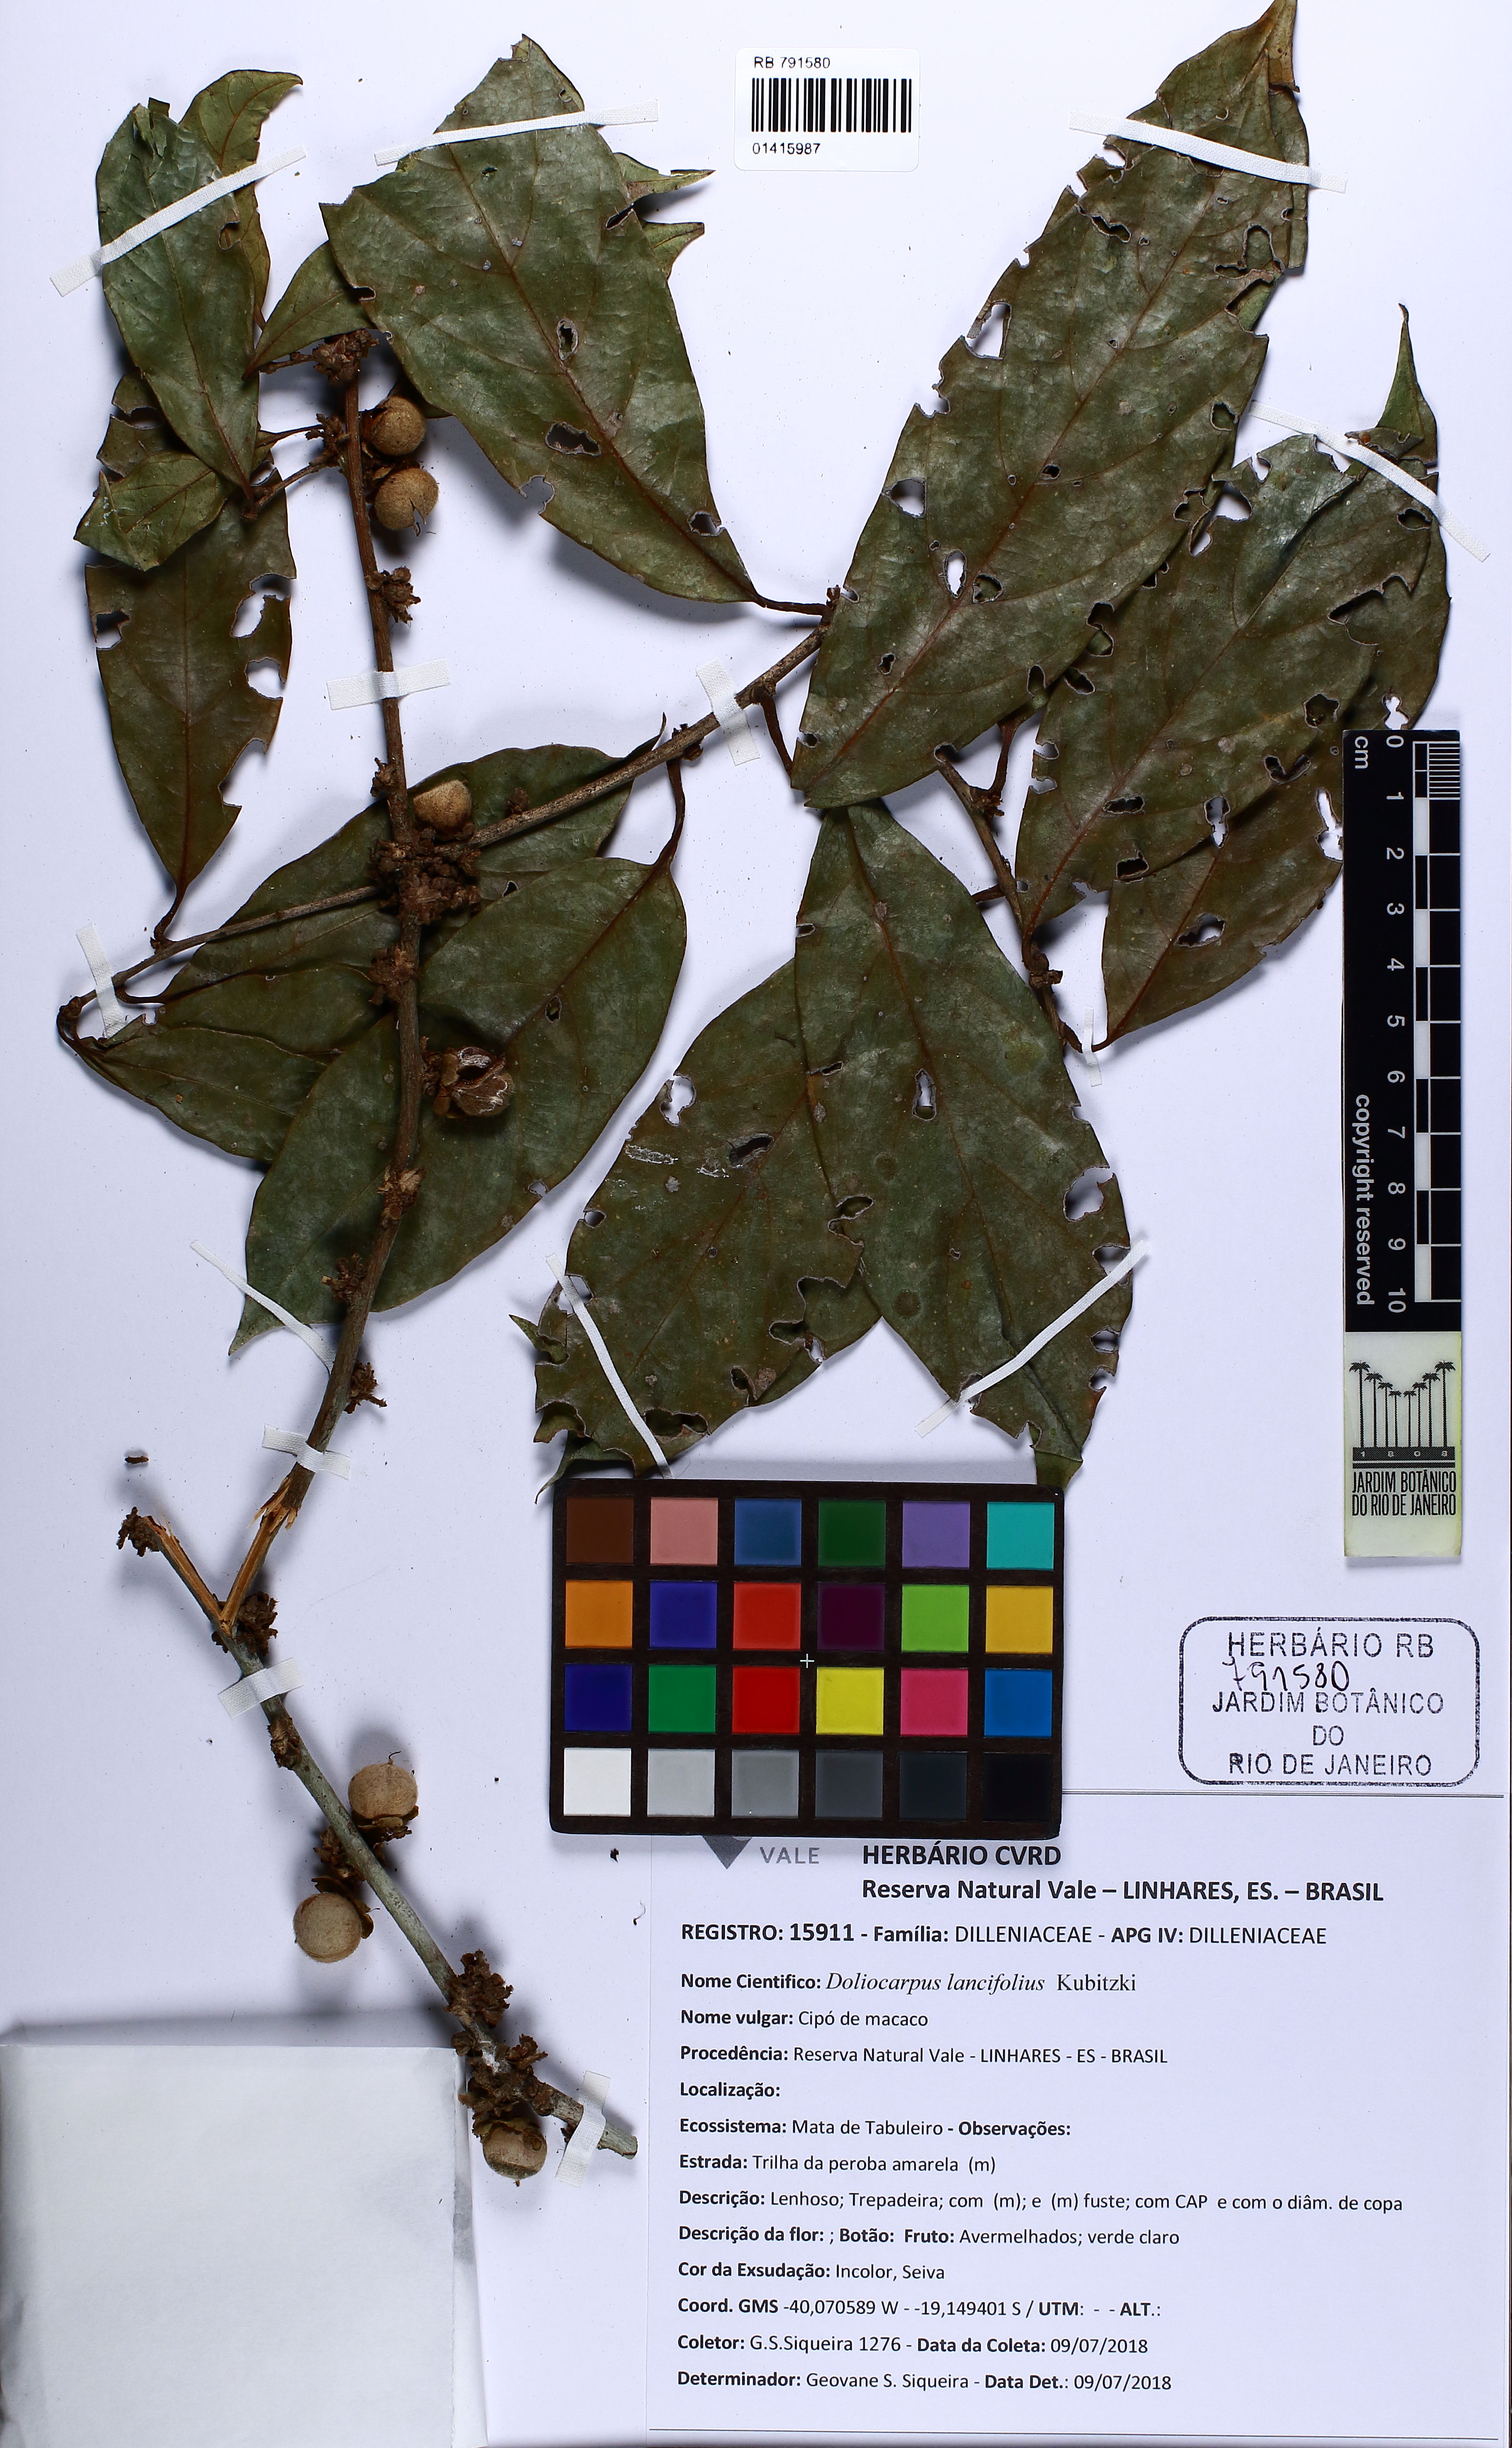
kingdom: Plantae
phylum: Tracheophyta
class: Magnoliopsida
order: Dilleniales
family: Dilleniaceae
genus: Doliocarpus
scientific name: Doliocarpus lancifolius
